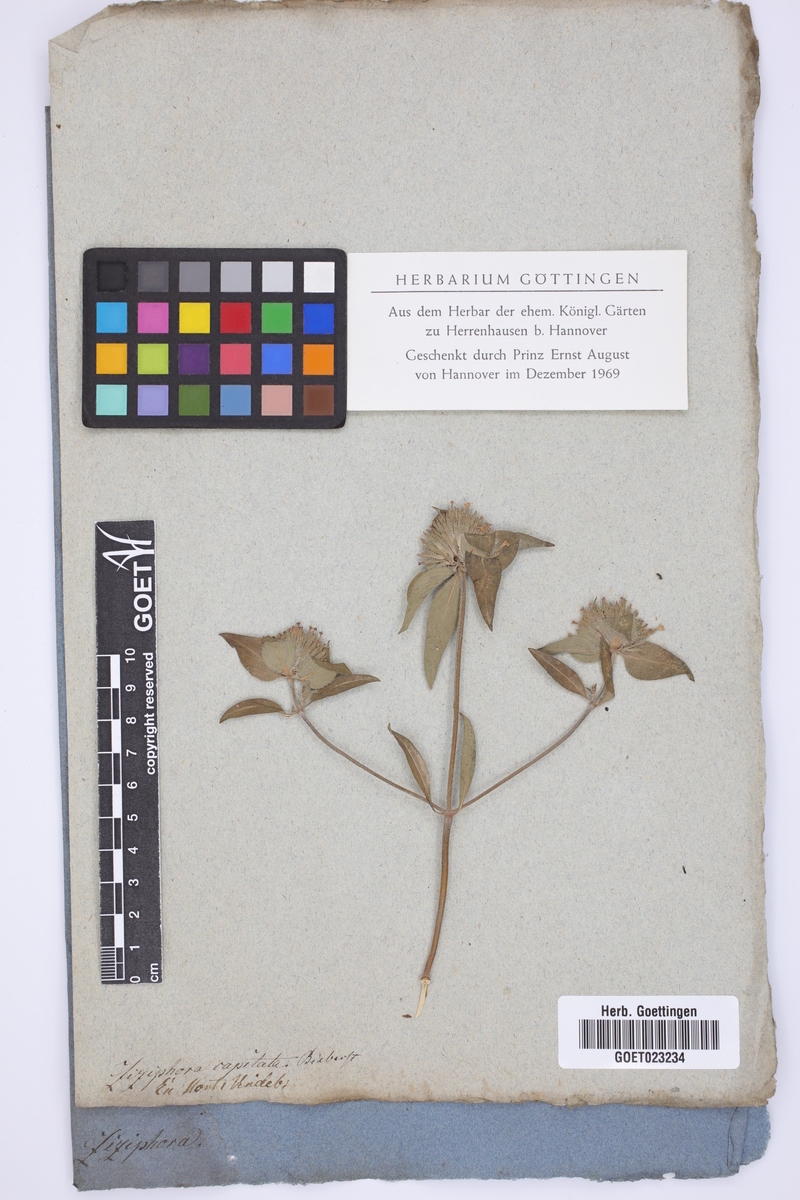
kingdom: Plantae
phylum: Tracheophyta
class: Magnoliopsida
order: Lamiales
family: Lamiaceae
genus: Ziziphora
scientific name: Ziziphora capitata
